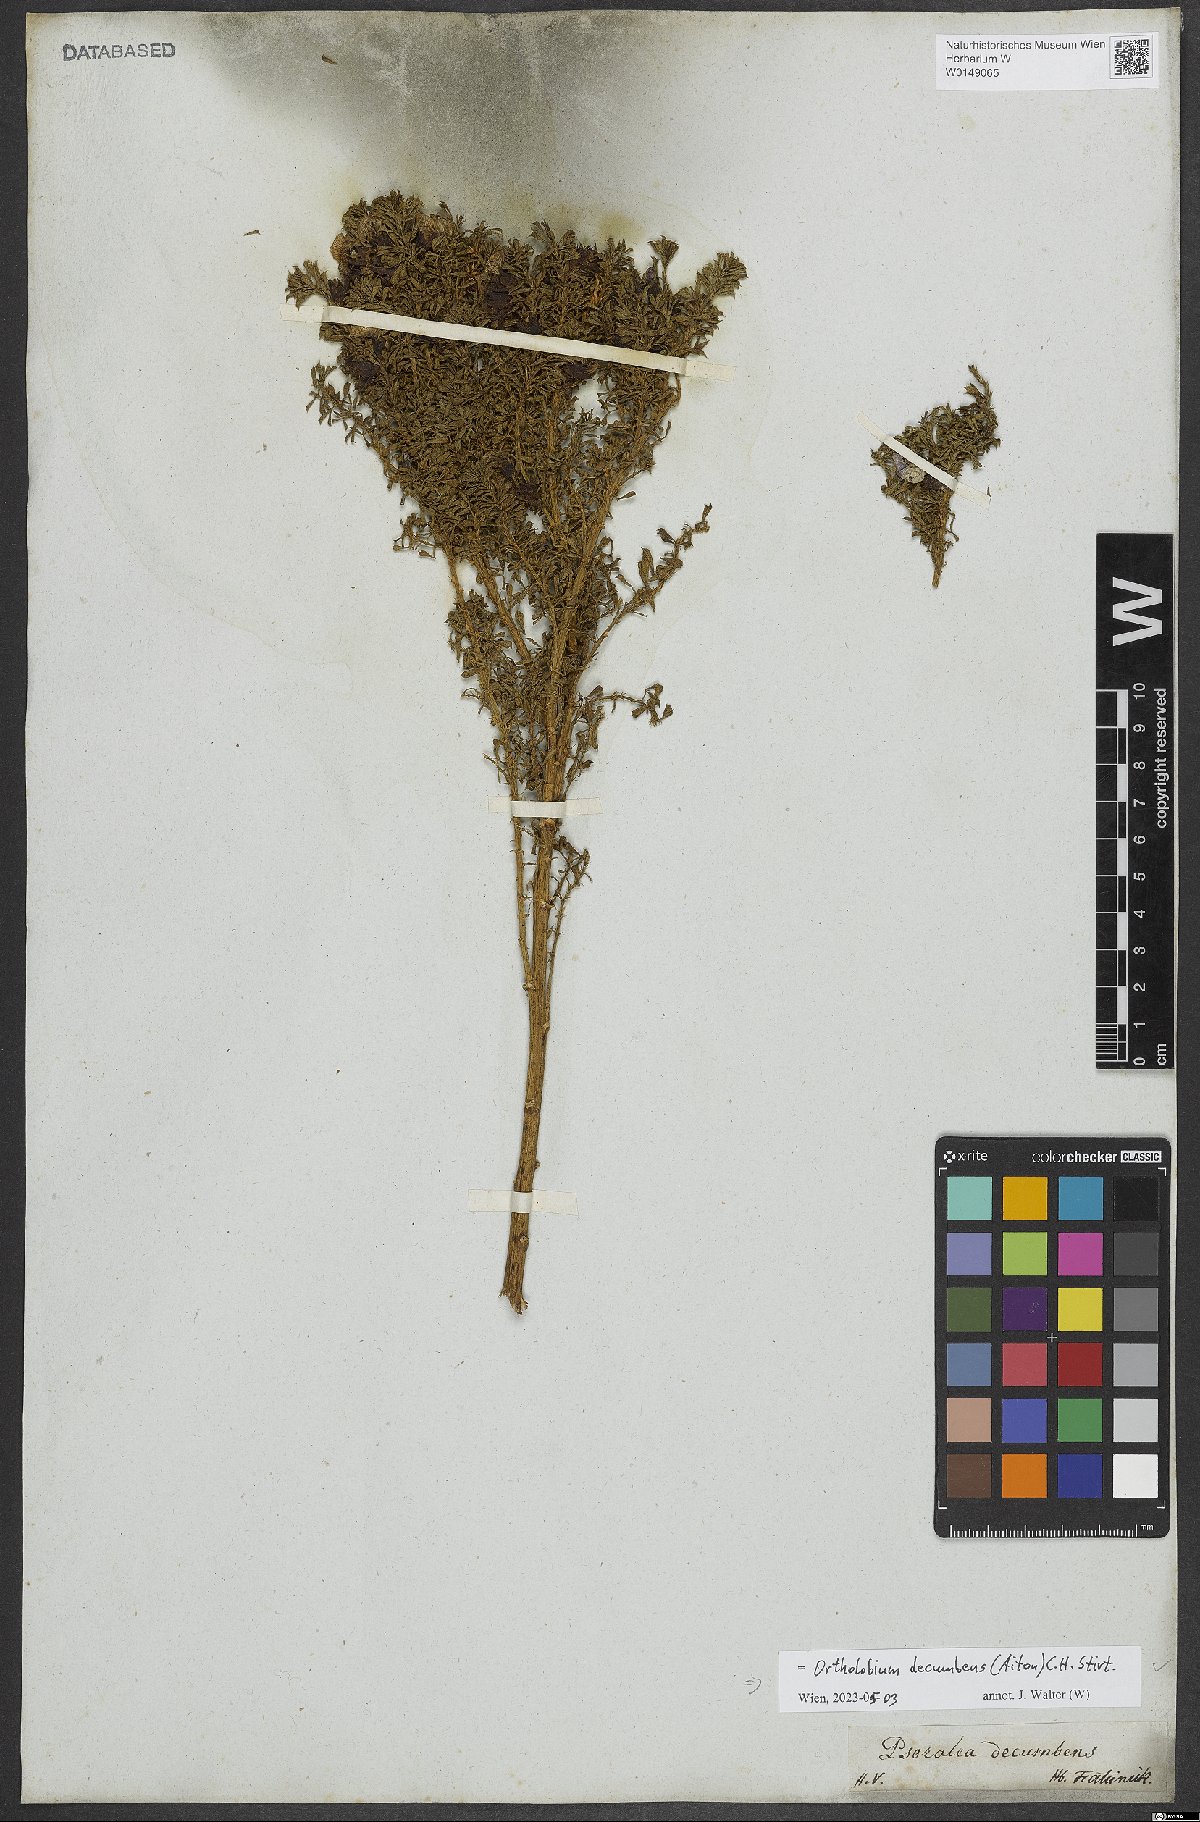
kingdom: Plantae
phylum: Tracheophyta
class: Magnoliopsida
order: Fabales
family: Fabaceae
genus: Psoralea
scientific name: Psoralea Otholobium decumbens
